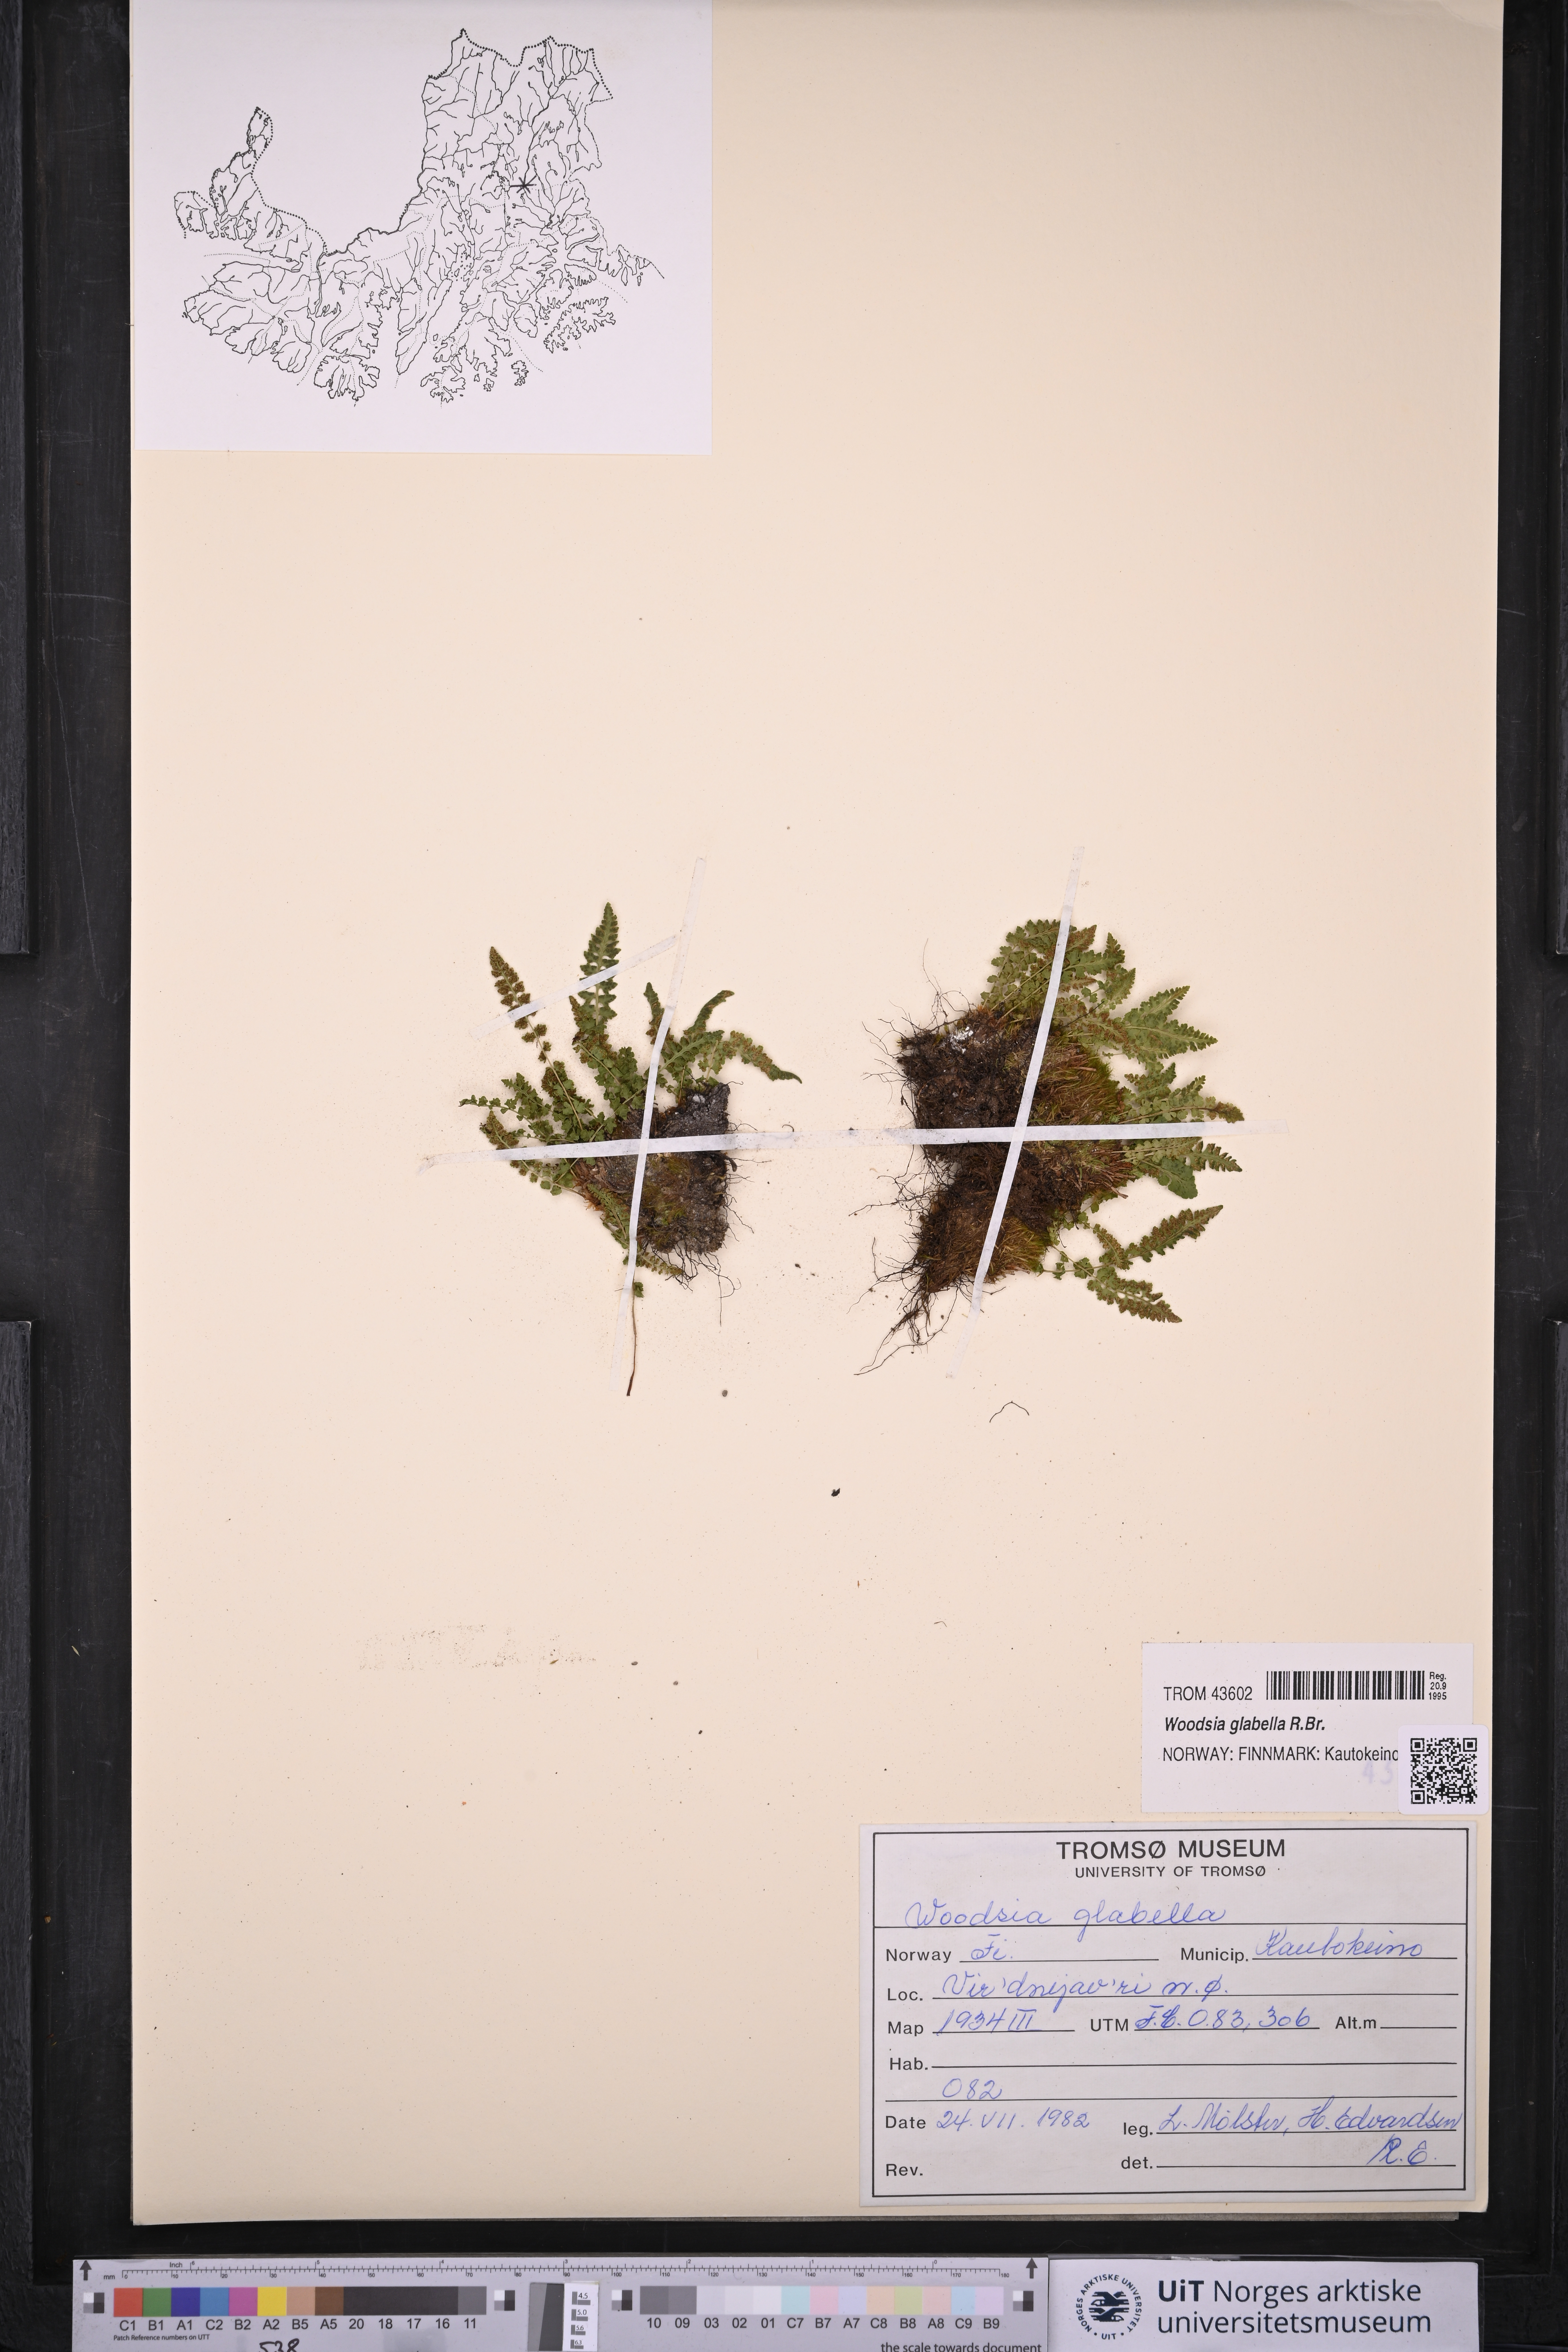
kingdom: Plantae
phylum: Tracheophyta
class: Polypodiopsida
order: Polypodiales
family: Woodsiaceae
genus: Woodsia
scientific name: Woodsia glabella
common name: Smooth woodsia
